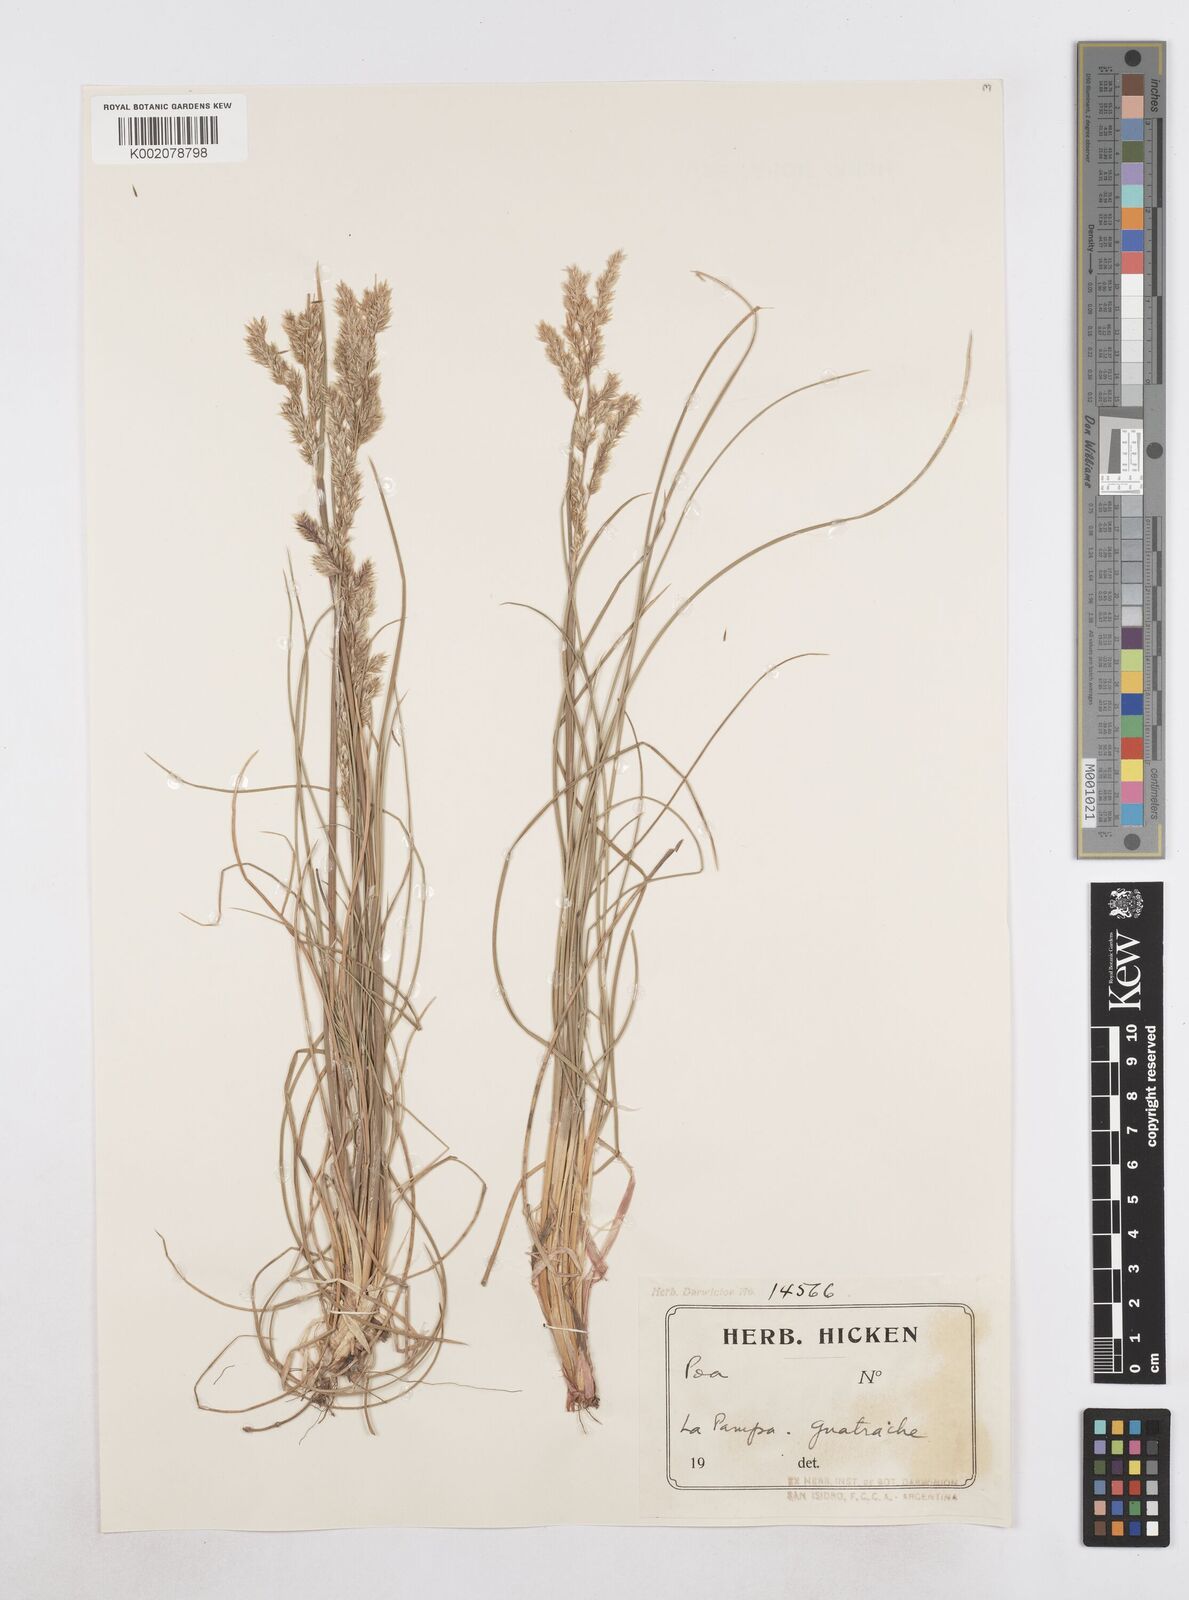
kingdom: Plantae
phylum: Tracheophyta
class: Liliopsida
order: Poales
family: Poaceae
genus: Poa
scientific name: Poa
